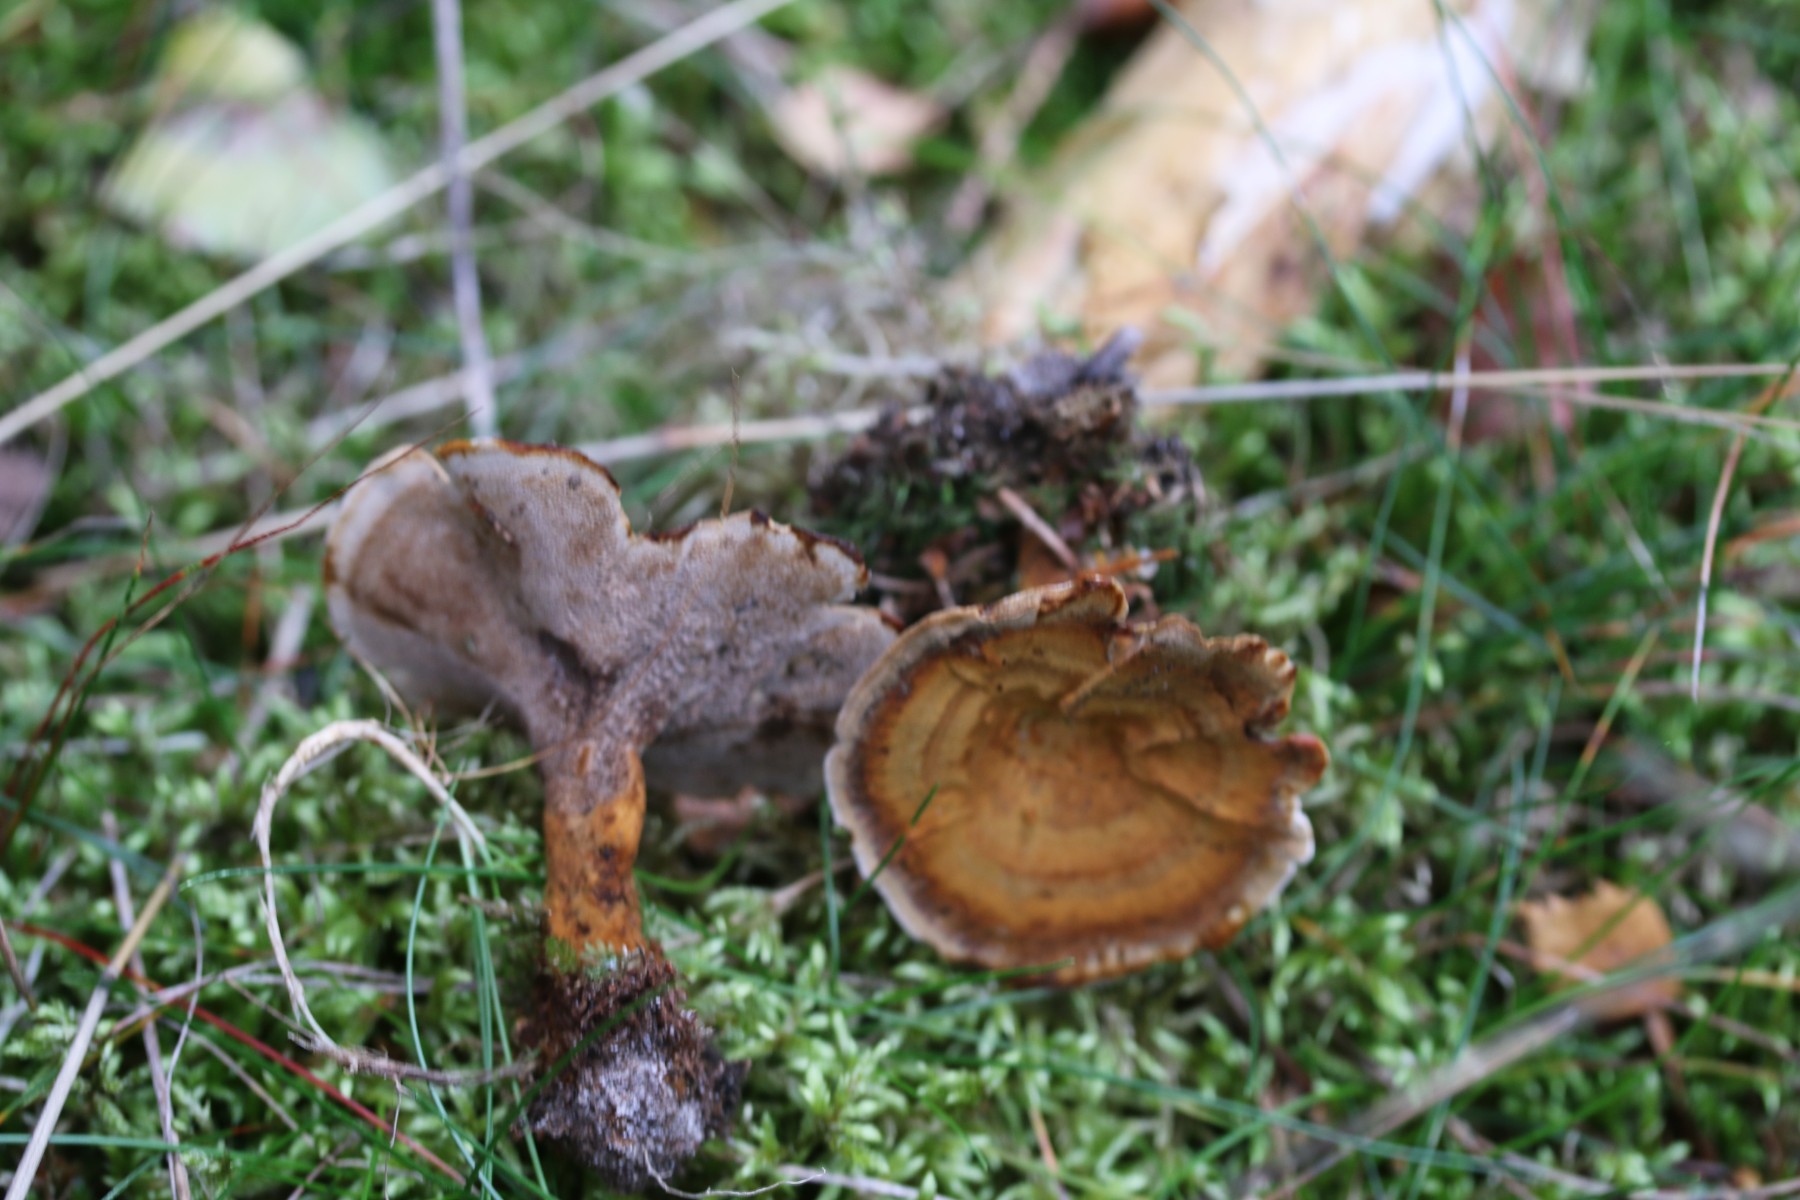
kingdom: Fungi
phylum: Basidiomycota
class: Agaricomycetes
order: Hymenochaetales
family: Hymenochaetaceae
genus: Coltricia
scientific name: Coltricia perennis
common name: almindelig sandporesvamp
